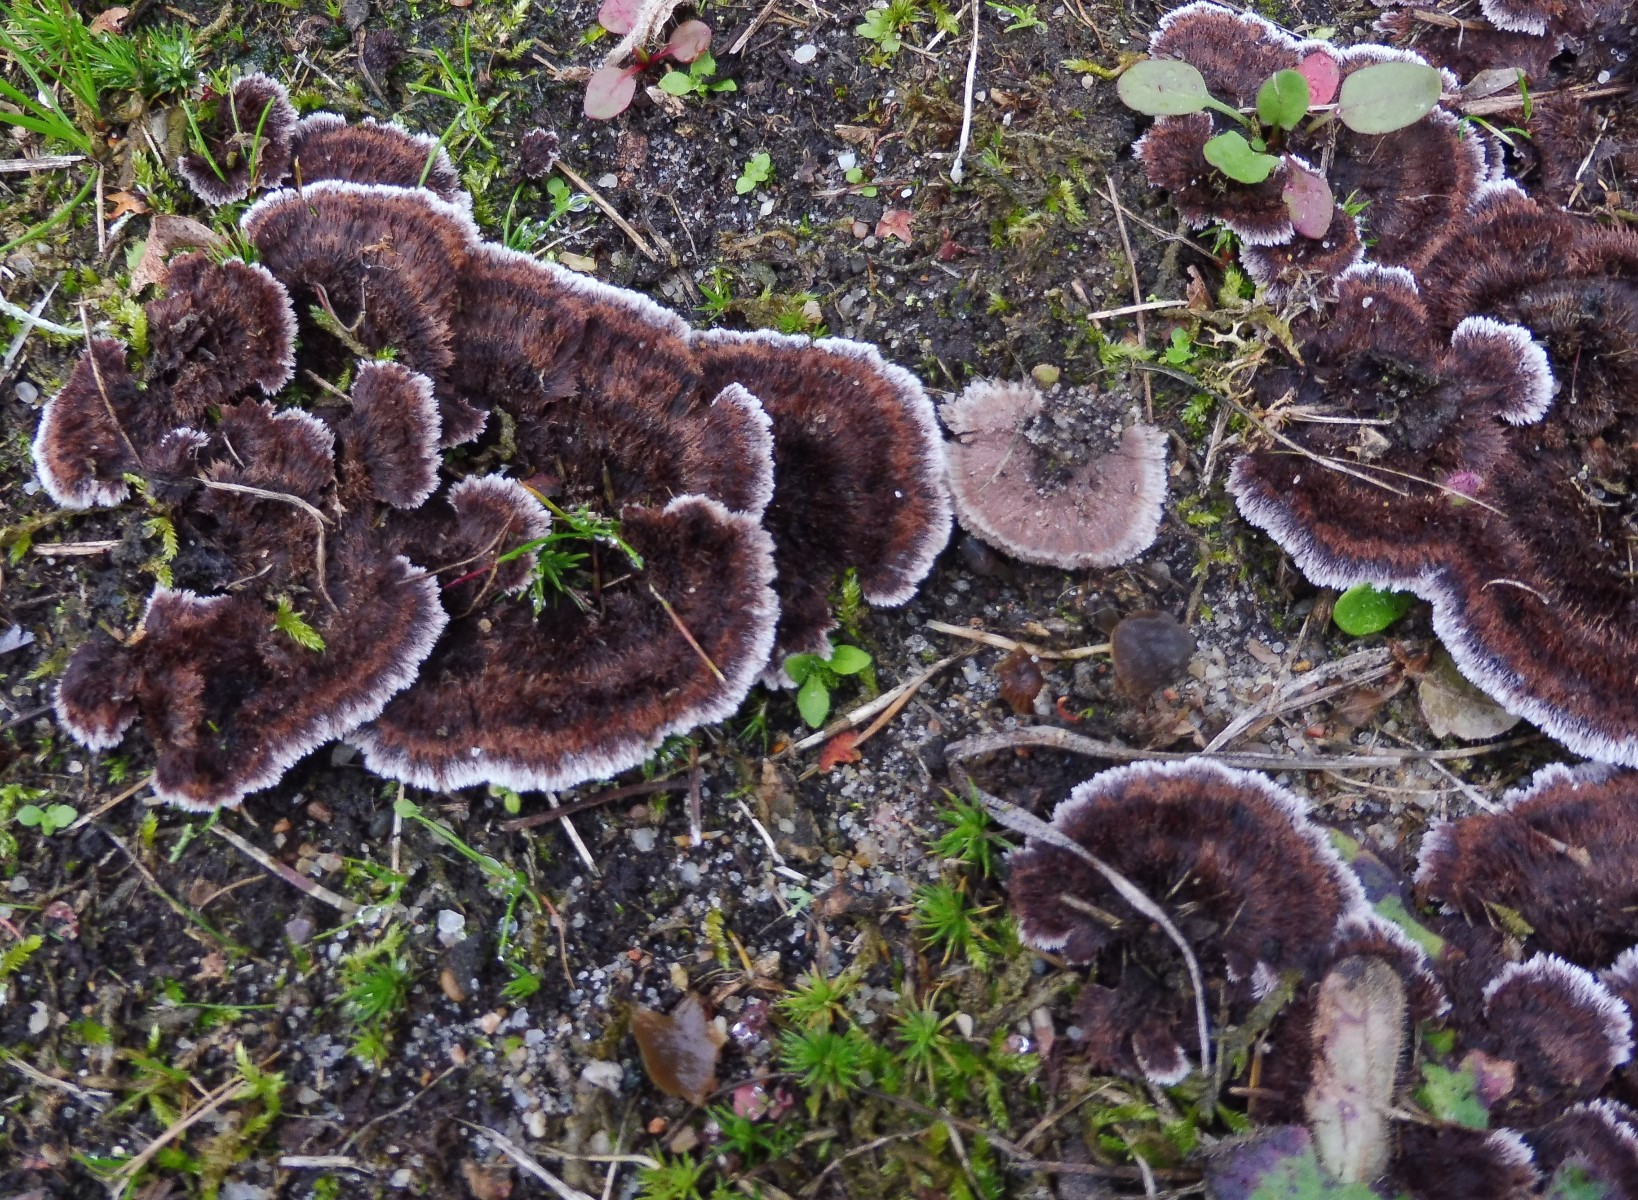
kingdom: Fungi
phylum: Basidiomycota
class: Agaricomycetes
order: Thelephorales
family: Thelephoraceae
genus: Thelephora
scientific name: Thelephora terrestris
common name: fliget frynsesvamp
